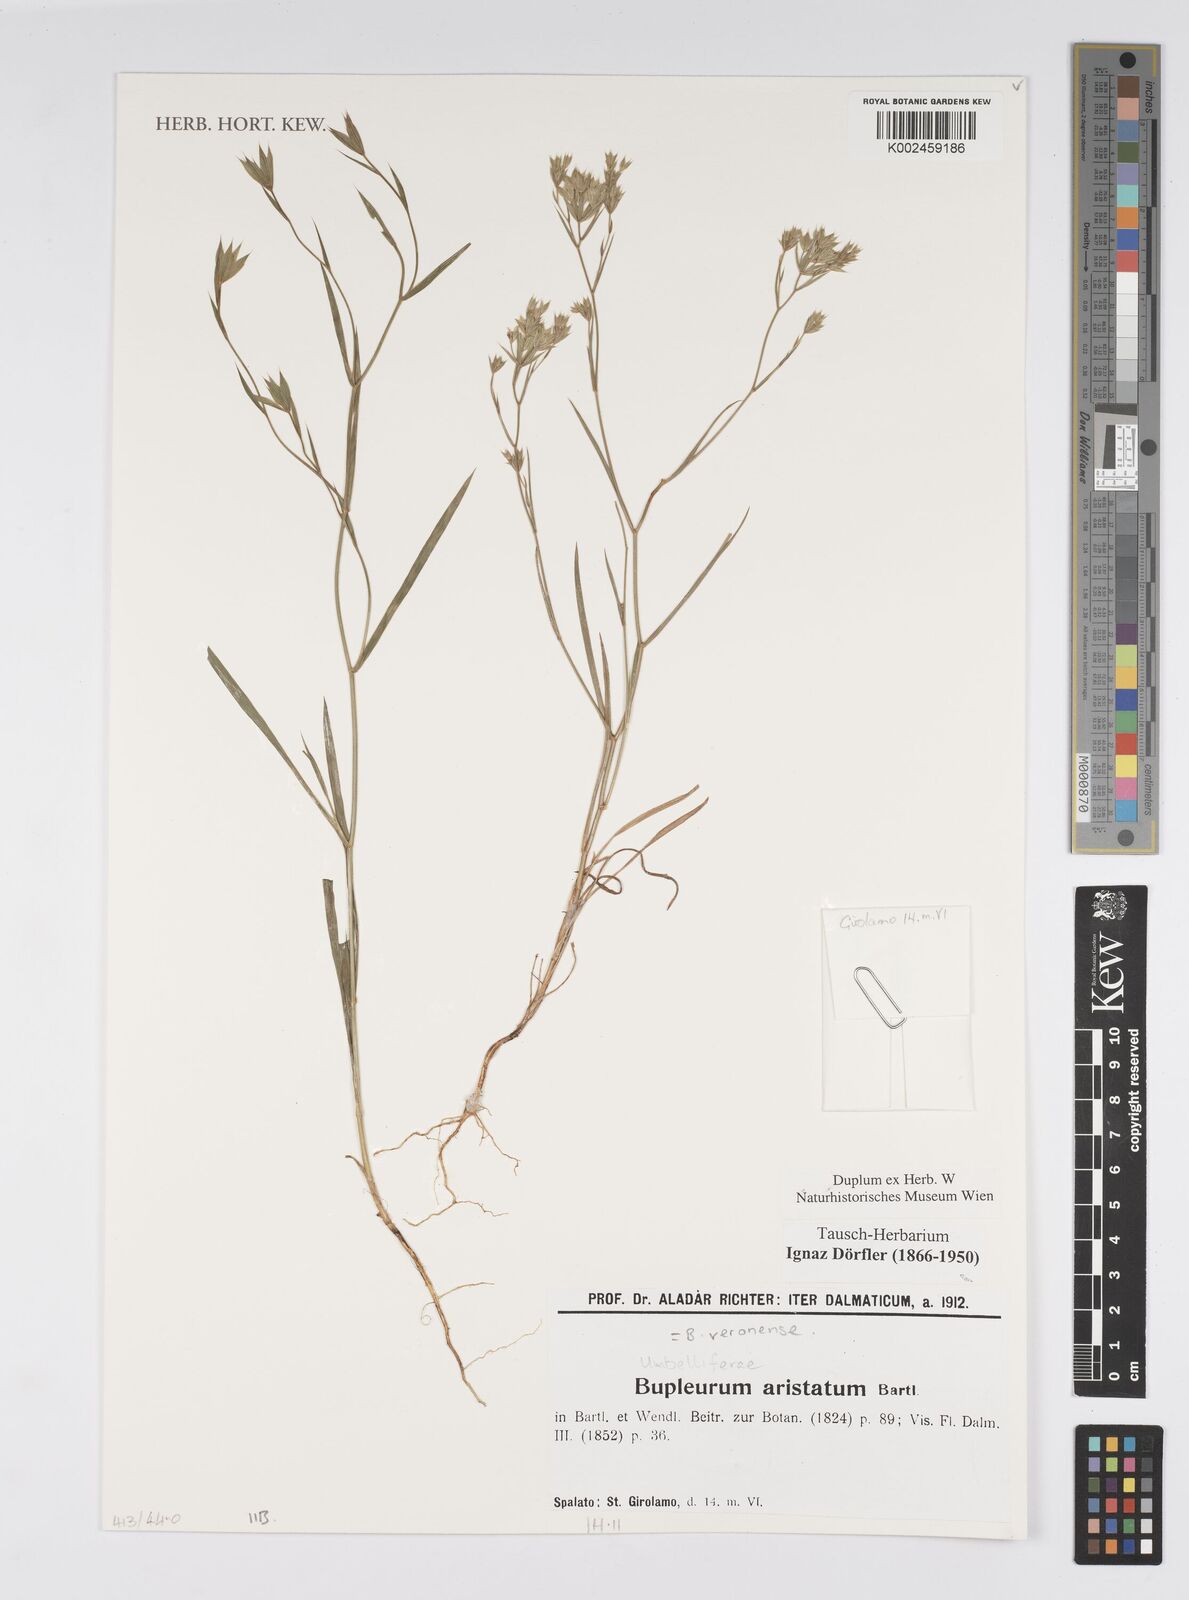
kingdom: Plantae
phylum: Tracheophyta
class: Magnoliopsida
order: Apiales
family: Apiaceae
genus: Bupleurum
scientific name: Bupleurum veronense
